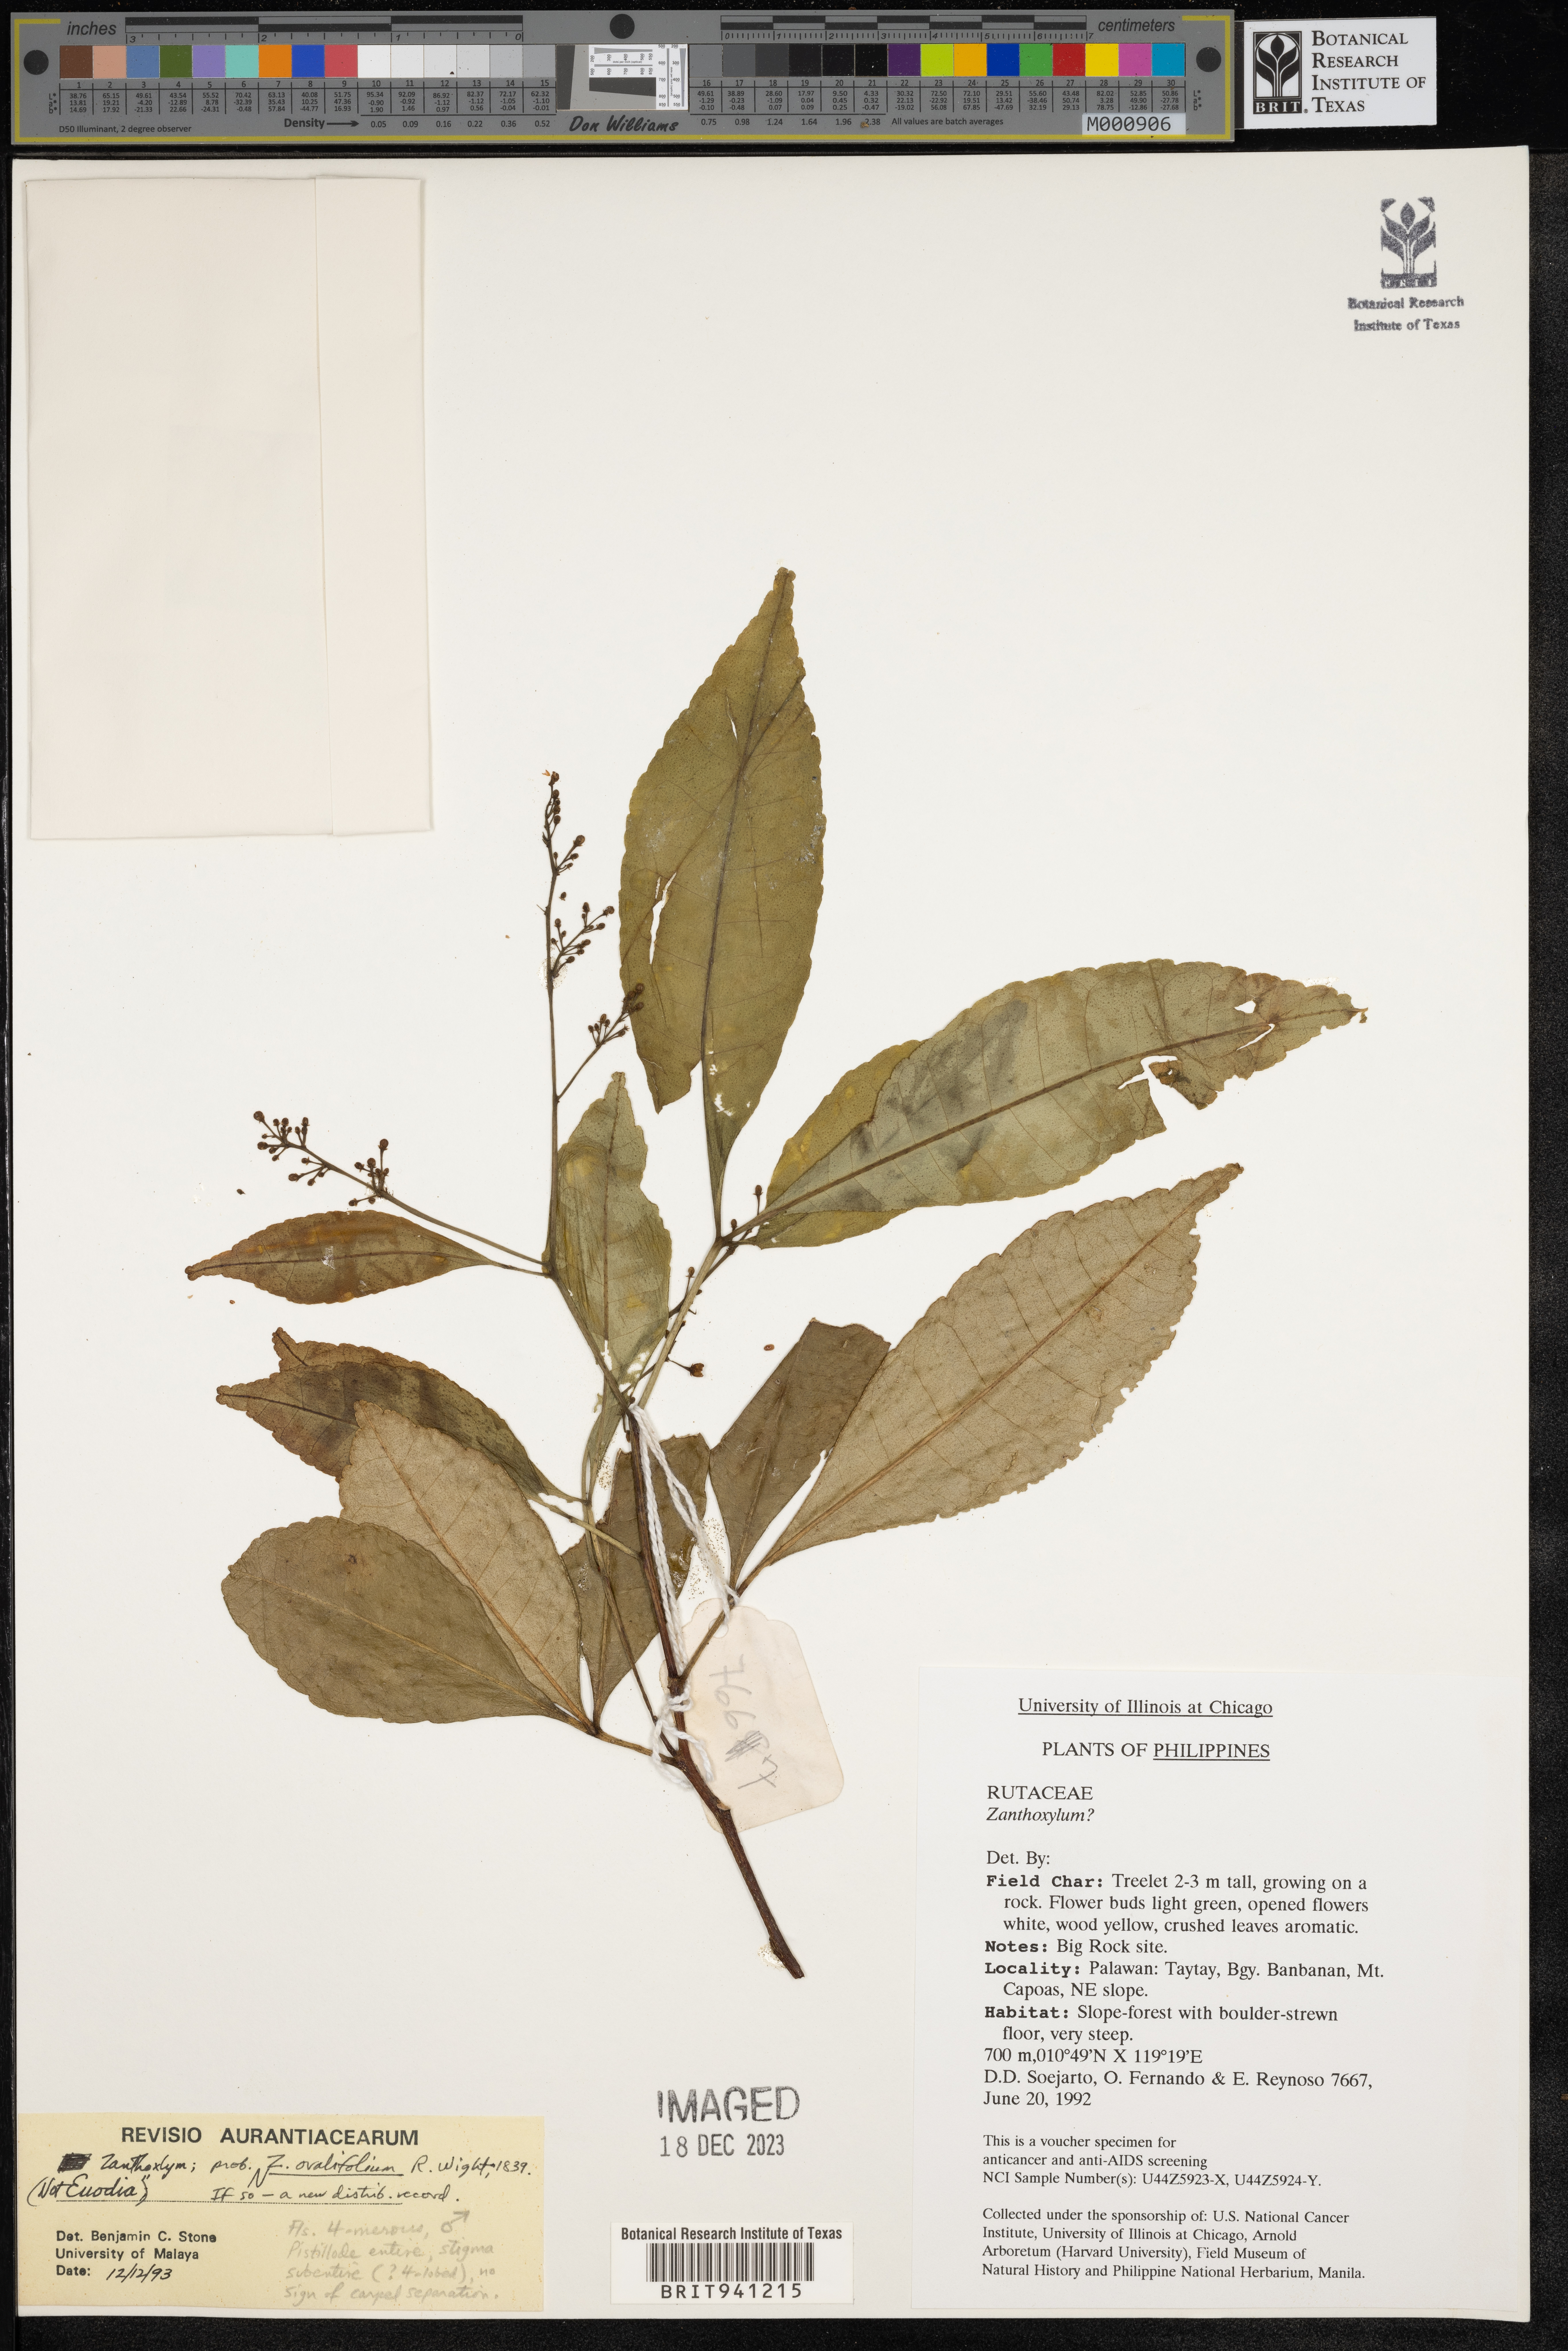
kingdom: Plantae
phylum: Tracheophyta
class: Magnoliopsida
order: Sapindales
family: Rutaceae
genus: Zanthoxylum
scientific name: Zanthoxylum
